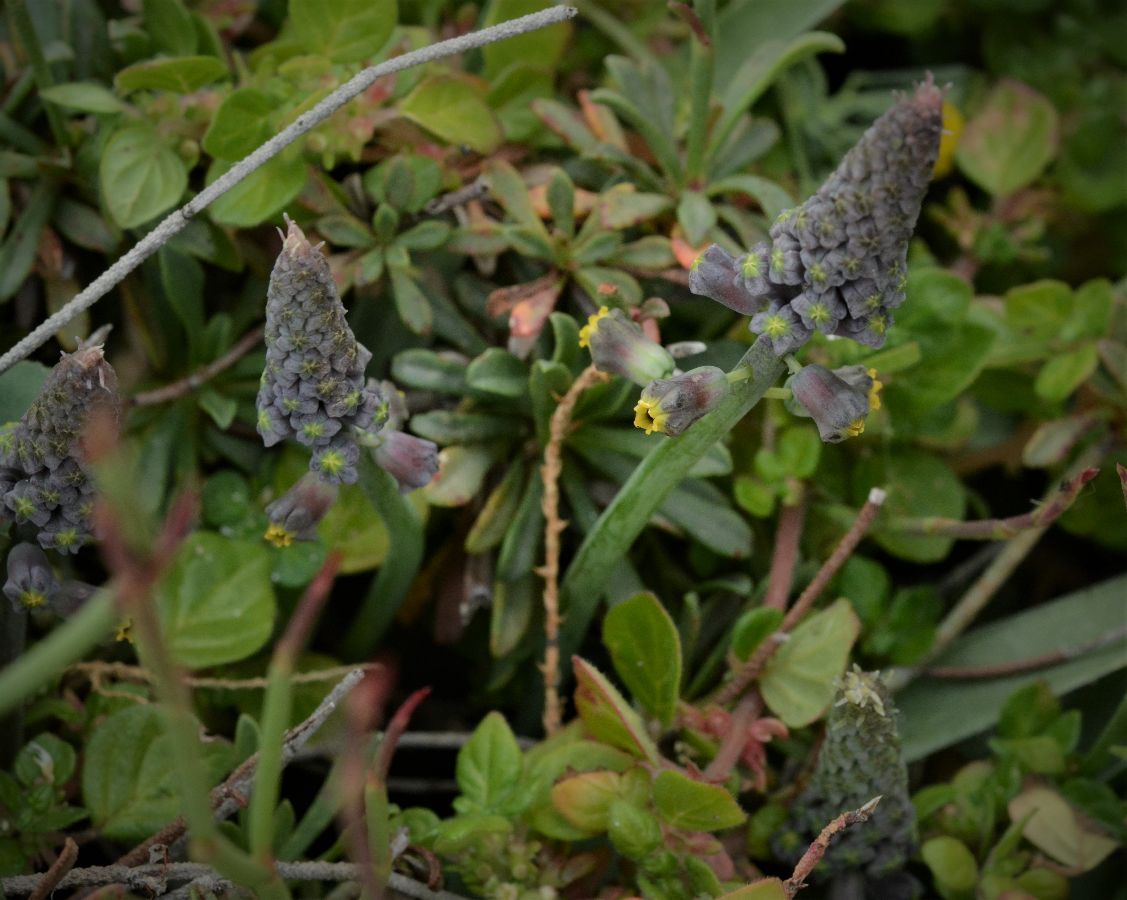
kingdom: Plantae
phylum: Tracheophyta
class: Liliopsida
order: Asparagales
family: Asparagaceae
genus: Muscari
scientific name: Muscari spreitzenhoferi
